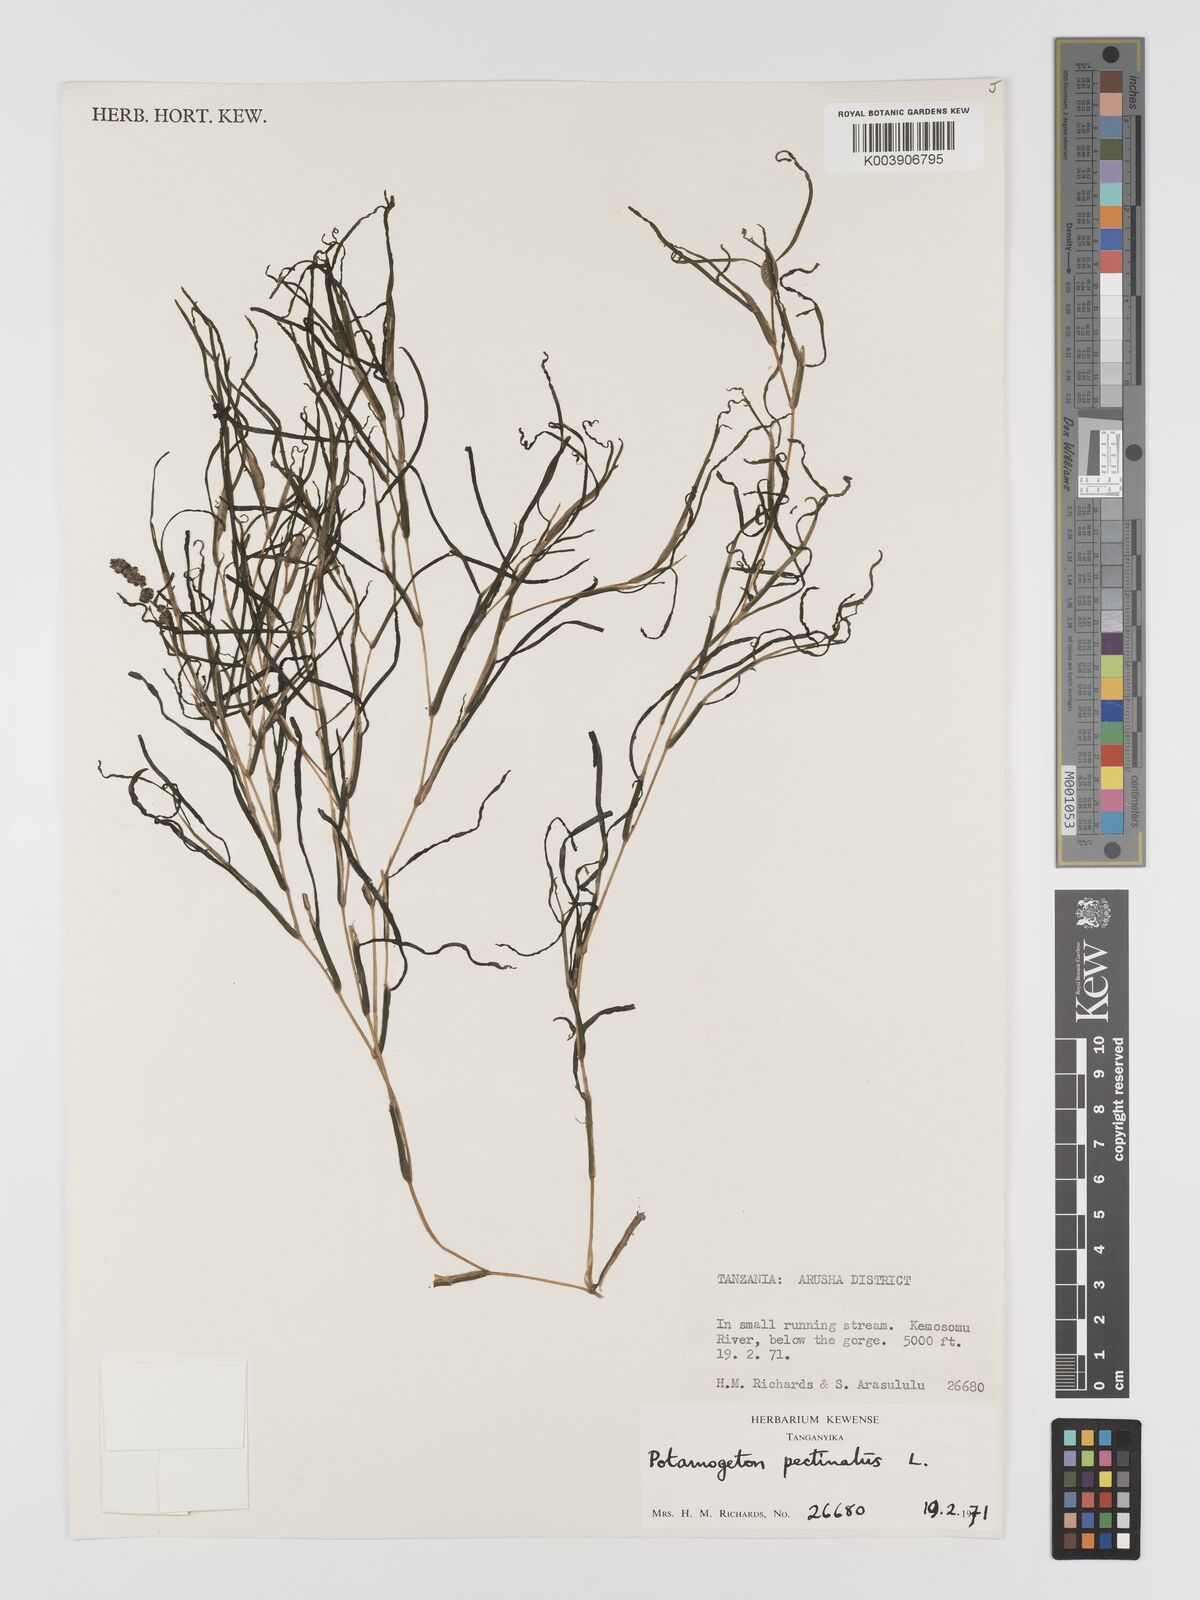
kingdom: Plantae
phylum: Tracheophyta
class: Liliopsida
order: Alismatales
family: Potamogetonaceae
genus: Stuckenia
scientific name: Stuckenia pectinata
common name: Sago pondweed
